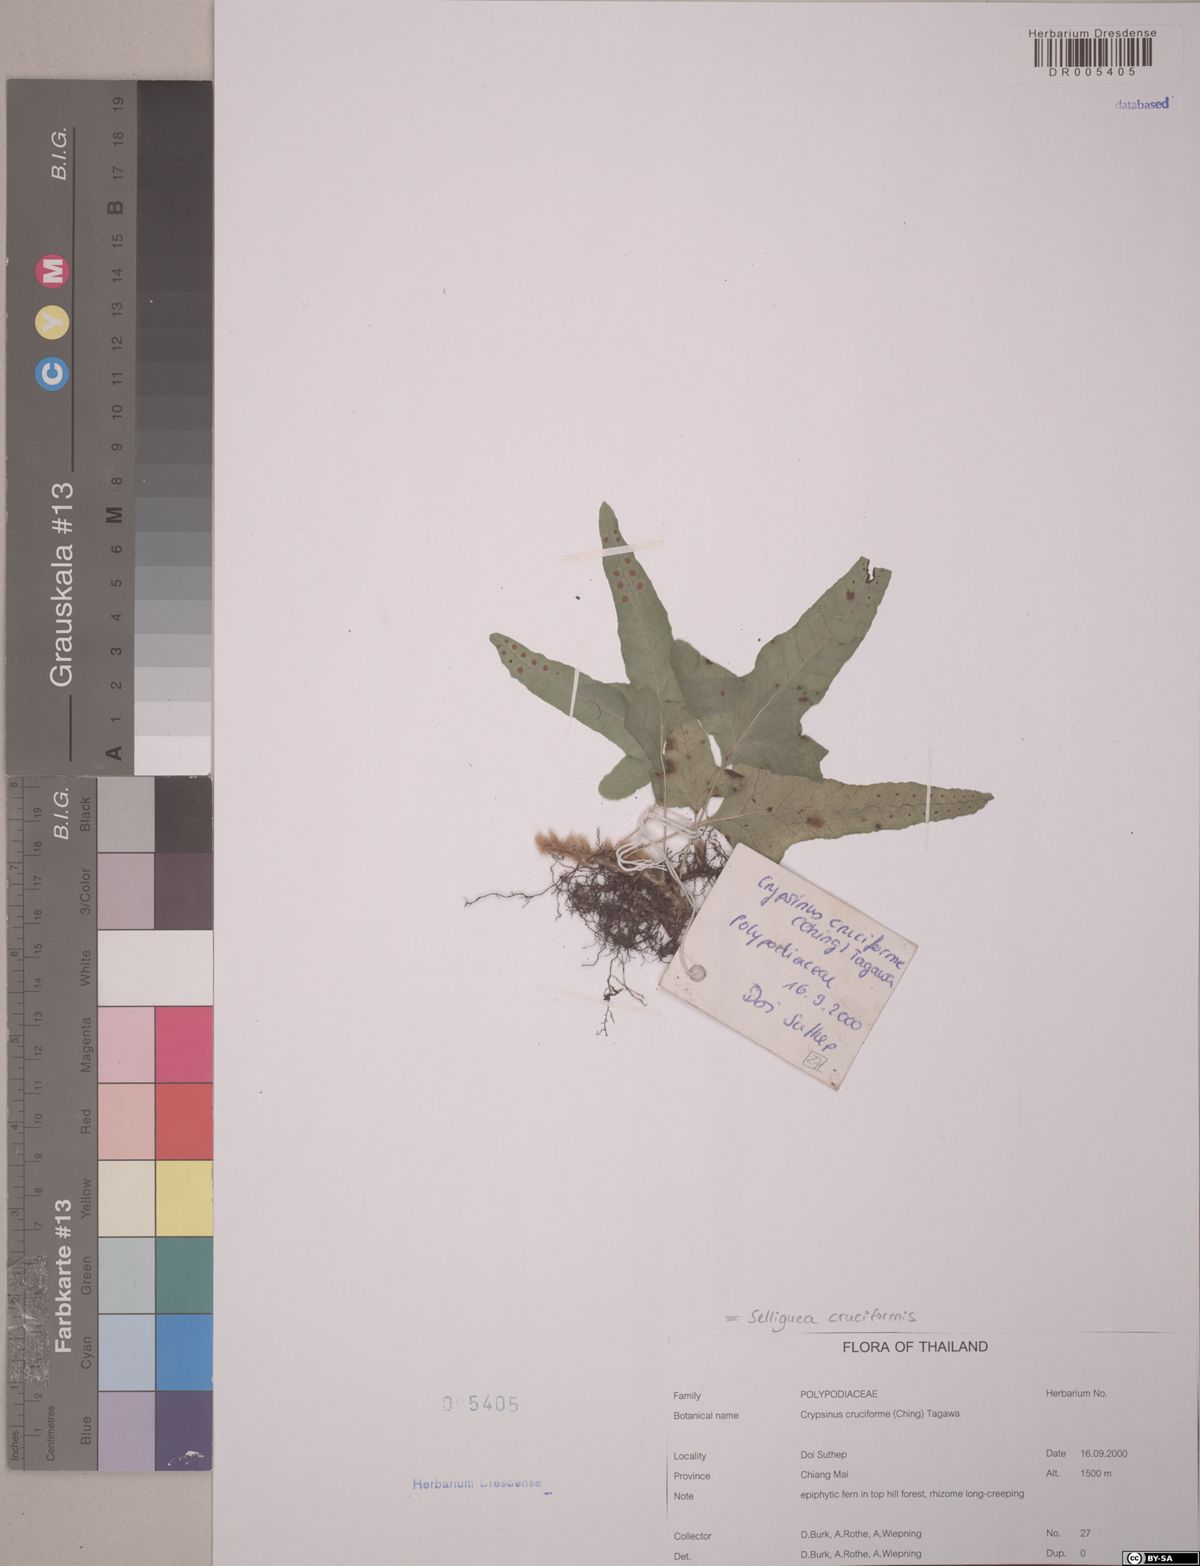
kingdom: Plantae
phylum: Tracheophyta
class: Polypodiopsida
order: Polypodiales
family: Polypodiaceae
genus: Selliguea
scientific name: Selliguea cruciformis
